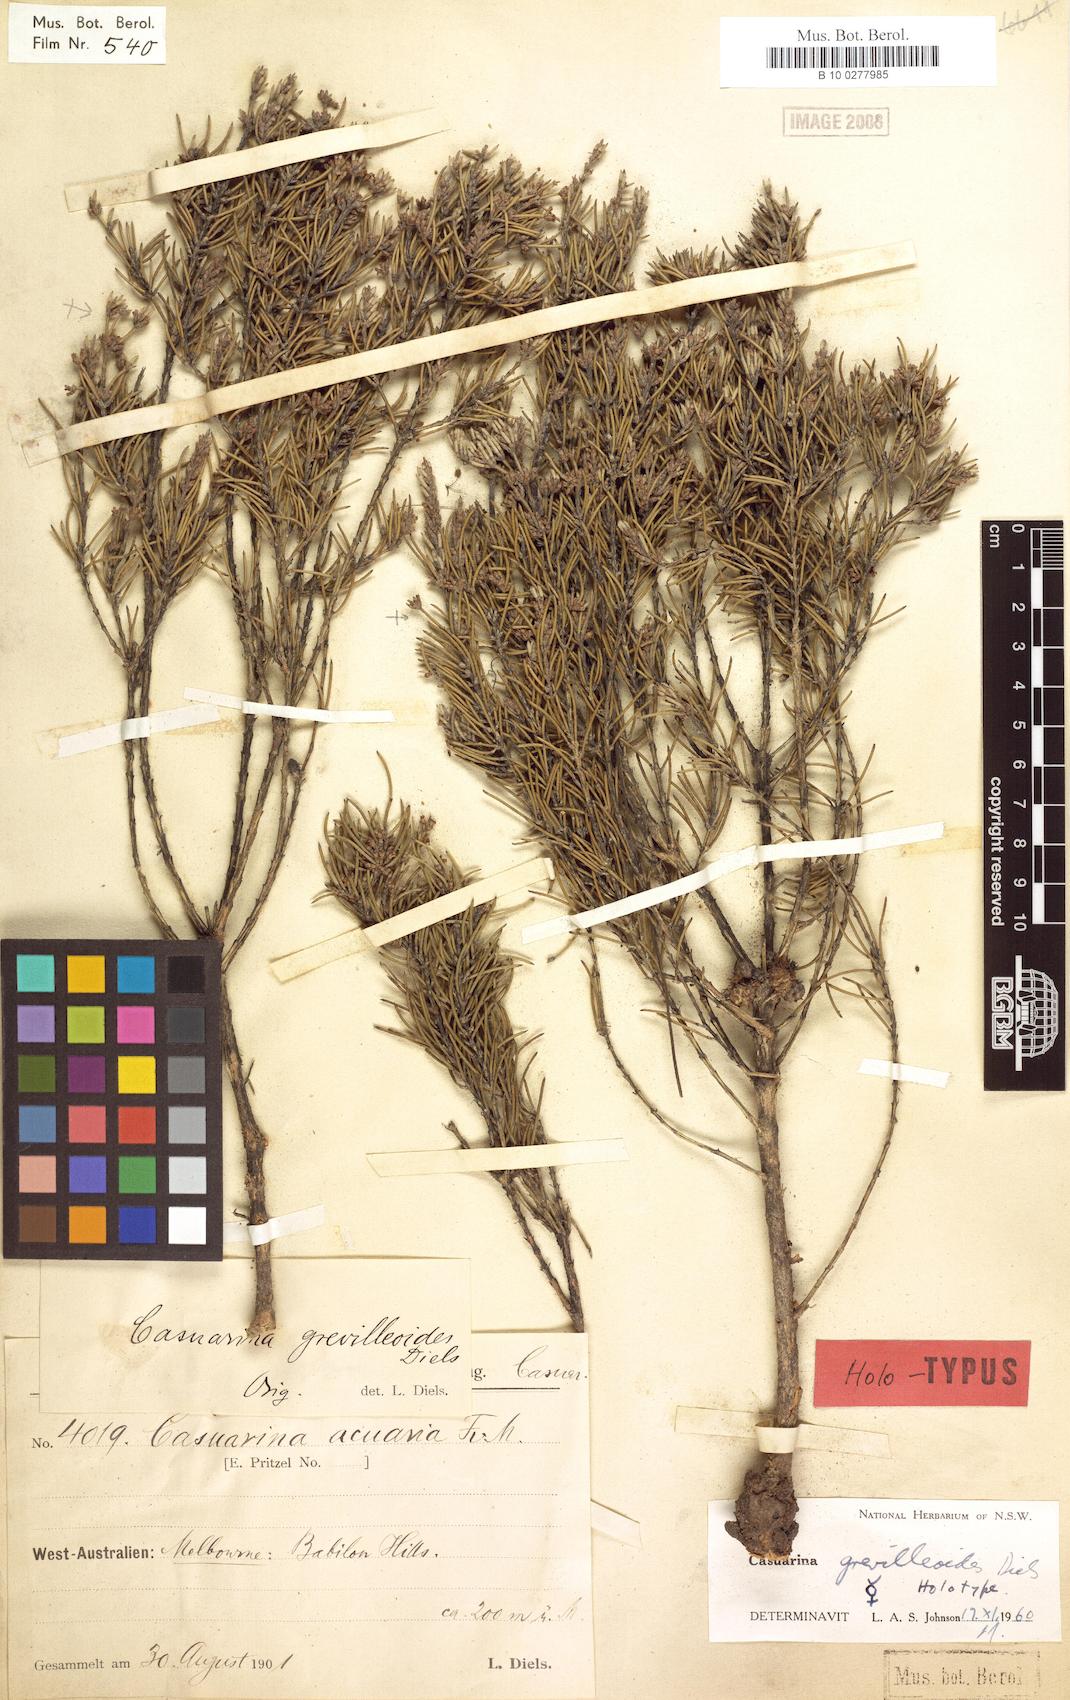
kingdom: Plantae
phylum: Tracheophyta
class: Magnoliopsida
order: Fagales
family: Casuarinaceae
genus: Allocasuarina
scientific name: Allocasuarina grevilleoides
